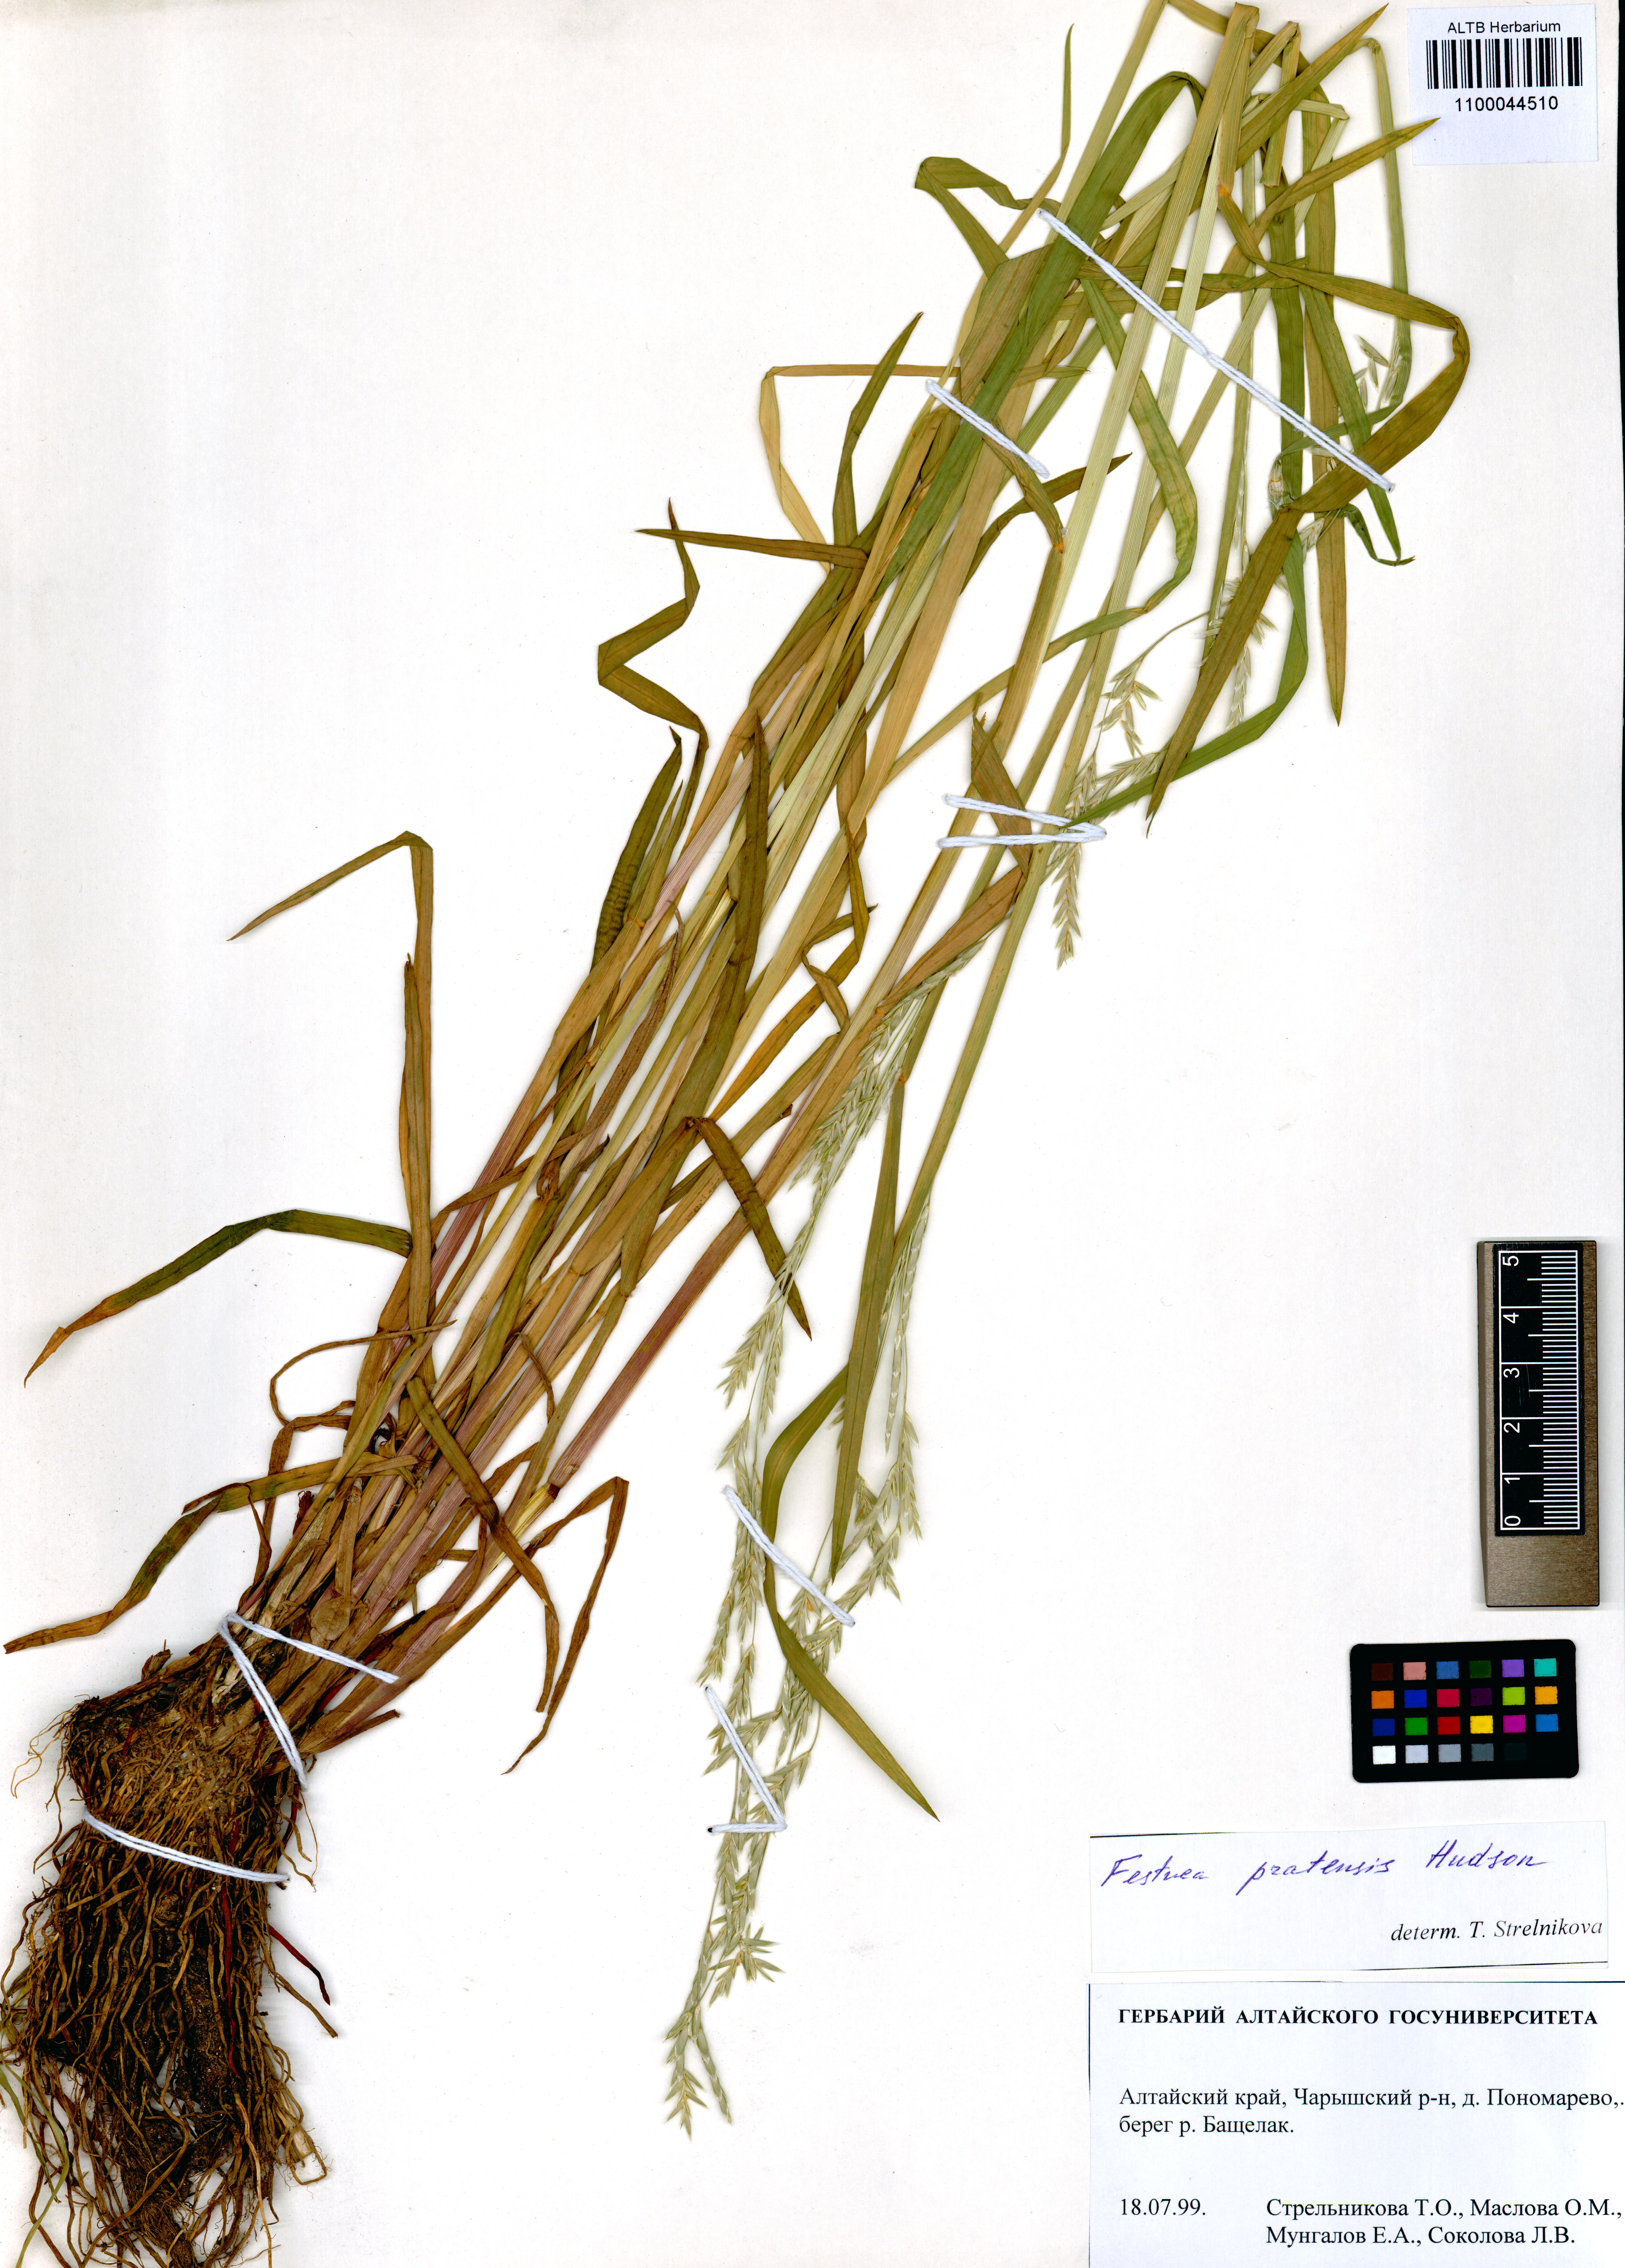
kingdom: Plantae
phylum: Tracheophyta
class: Liliopsida
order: Poales
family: Poaceae
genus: Lolium
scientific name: Lolium pratense
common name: Dover grass
